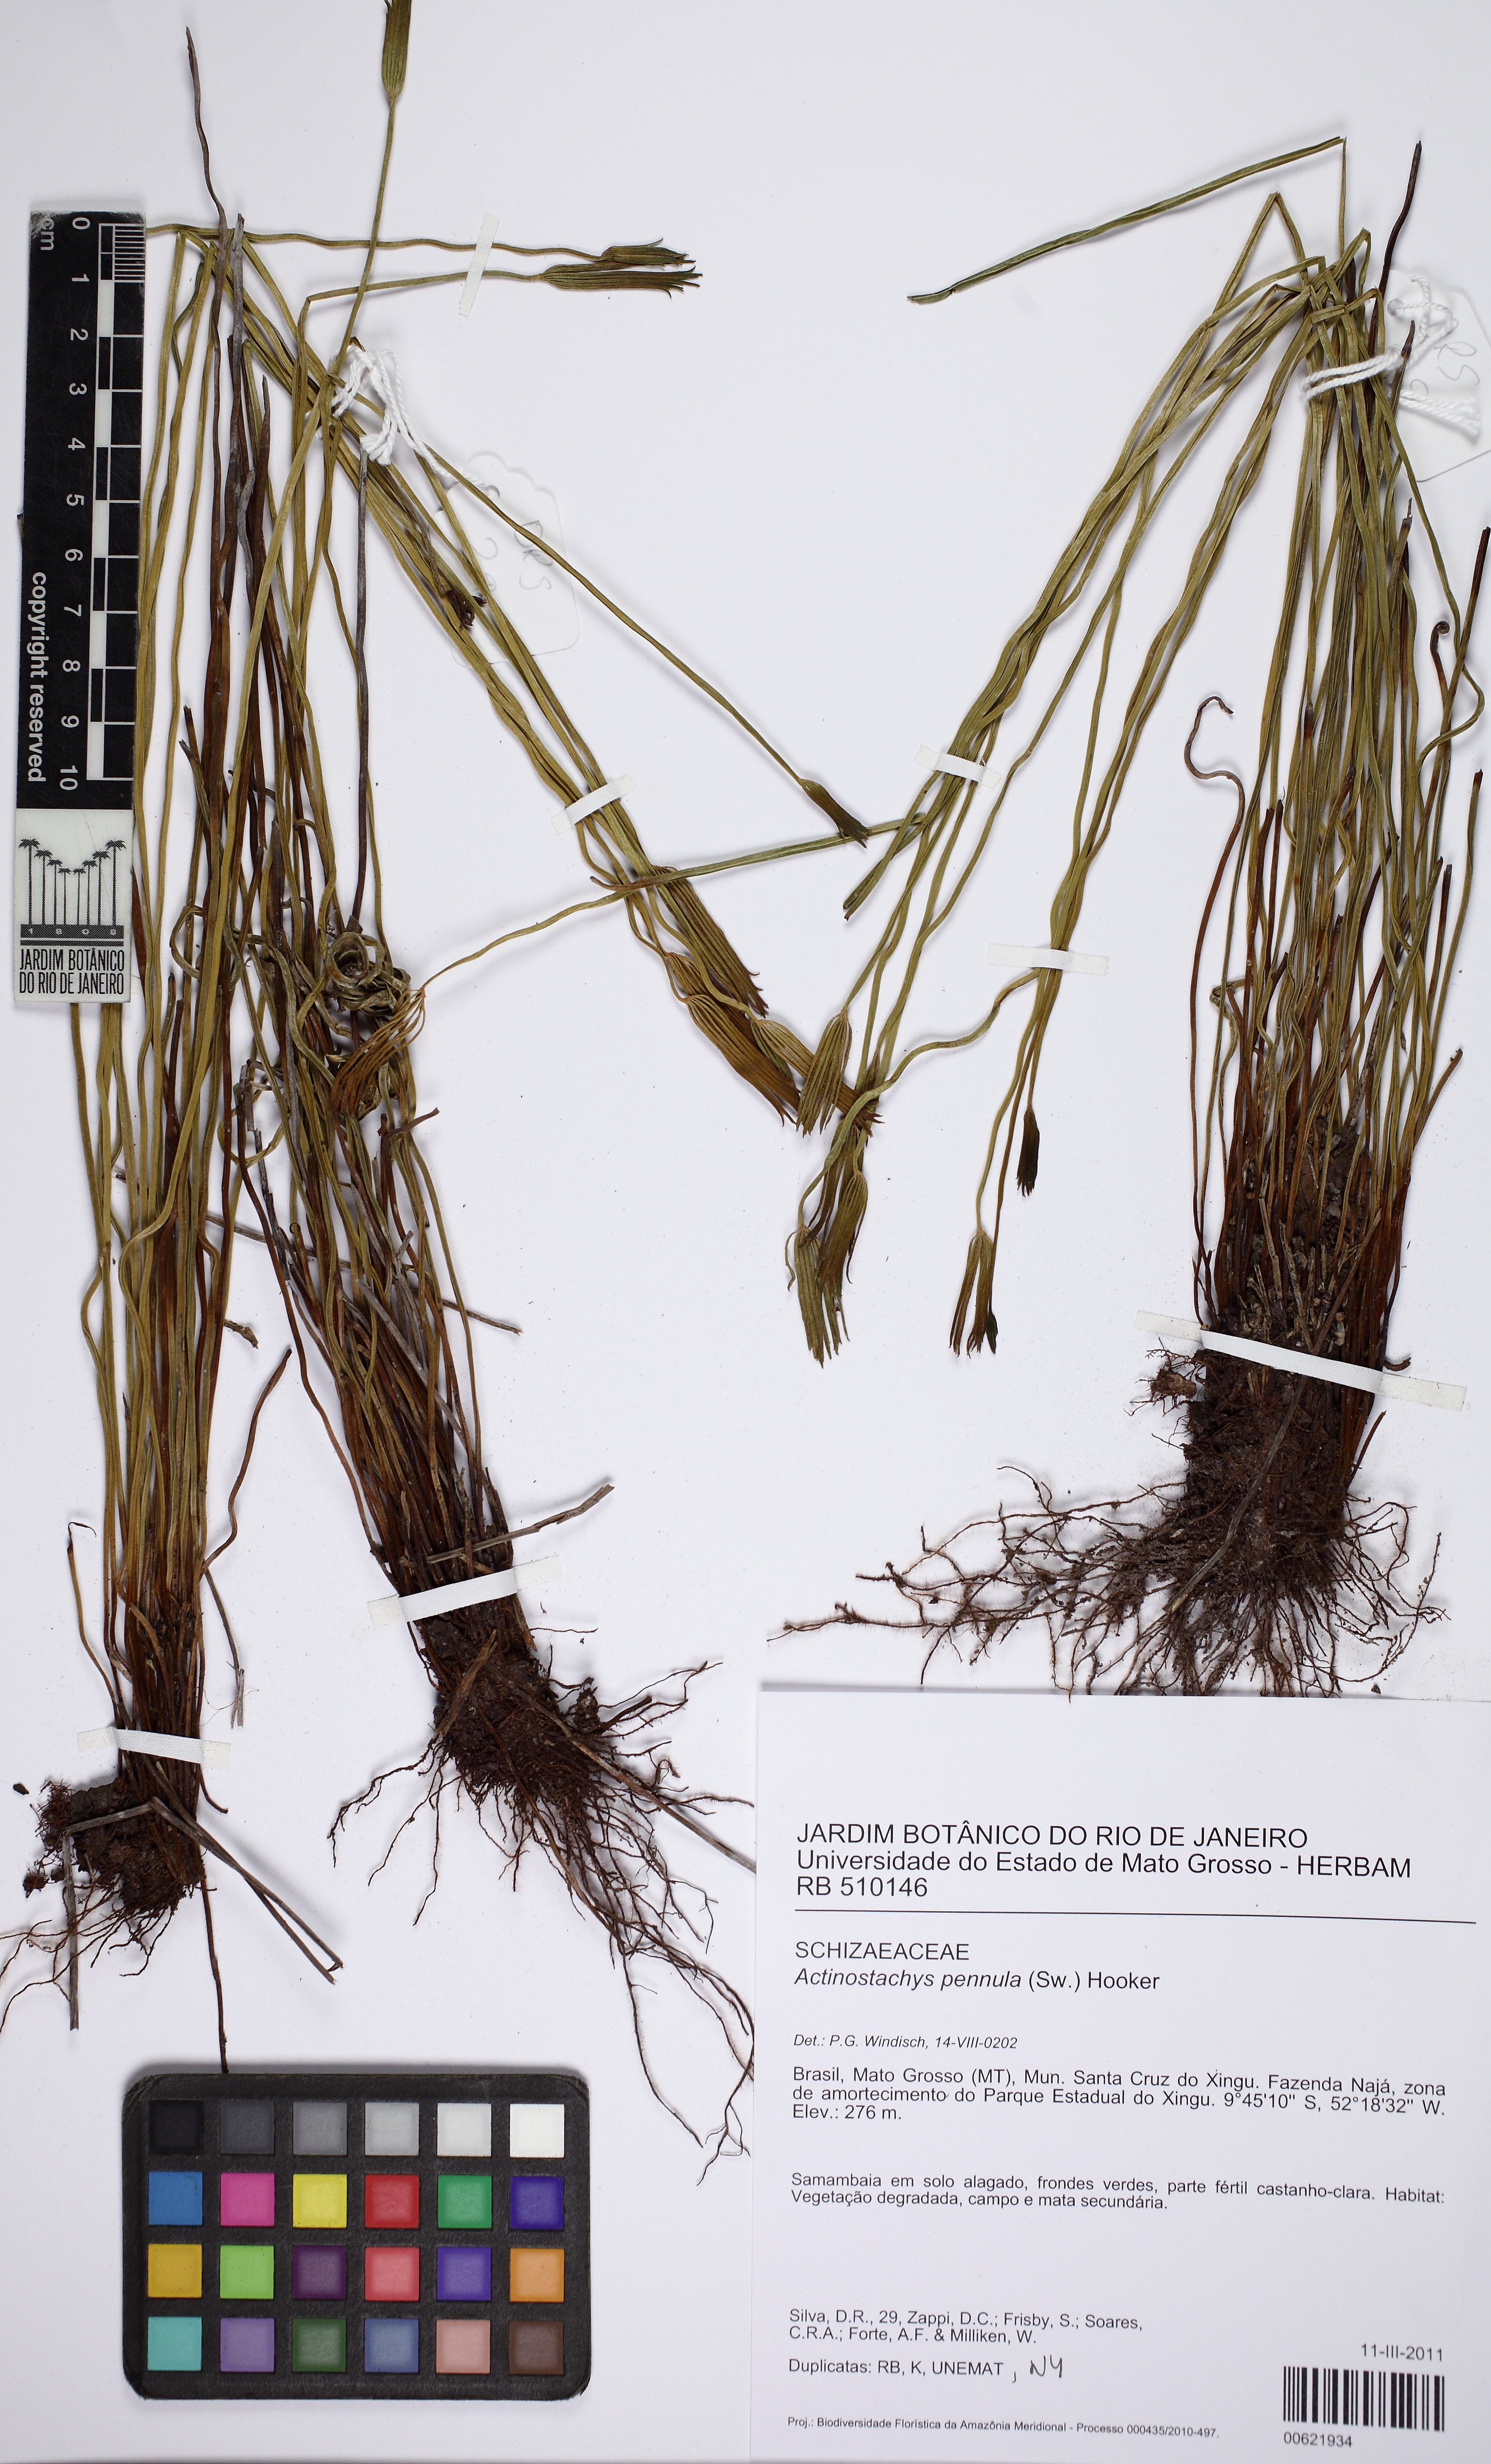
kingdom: Plantae
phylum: Tracheophyta
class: Polypodiopsida
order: Schizaeales
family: Schizaeaceae
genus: Actinostachys
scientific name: Actinostachys pennula
